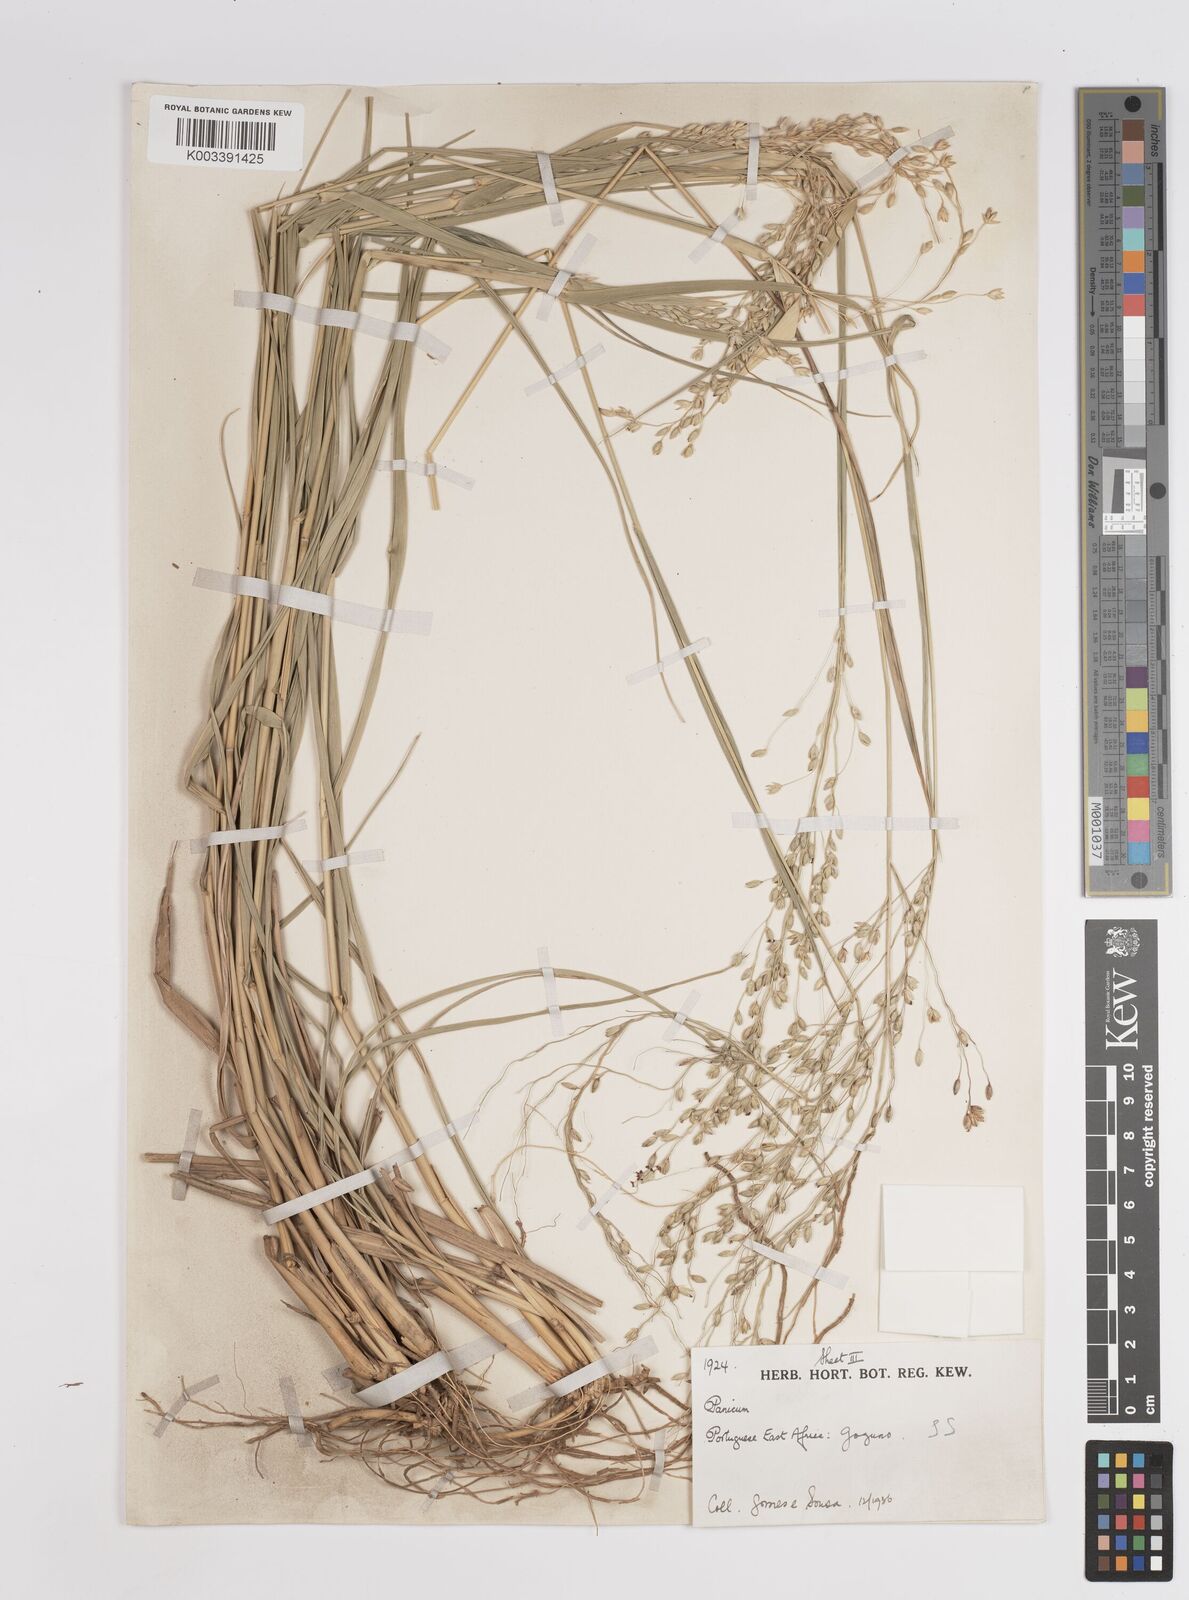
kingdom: Plantae
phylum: Tracheophyta
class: Liliopsida
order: Poales
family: Poaceae
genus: Panicum
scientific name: Panicum deustum
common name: Reed panicum
